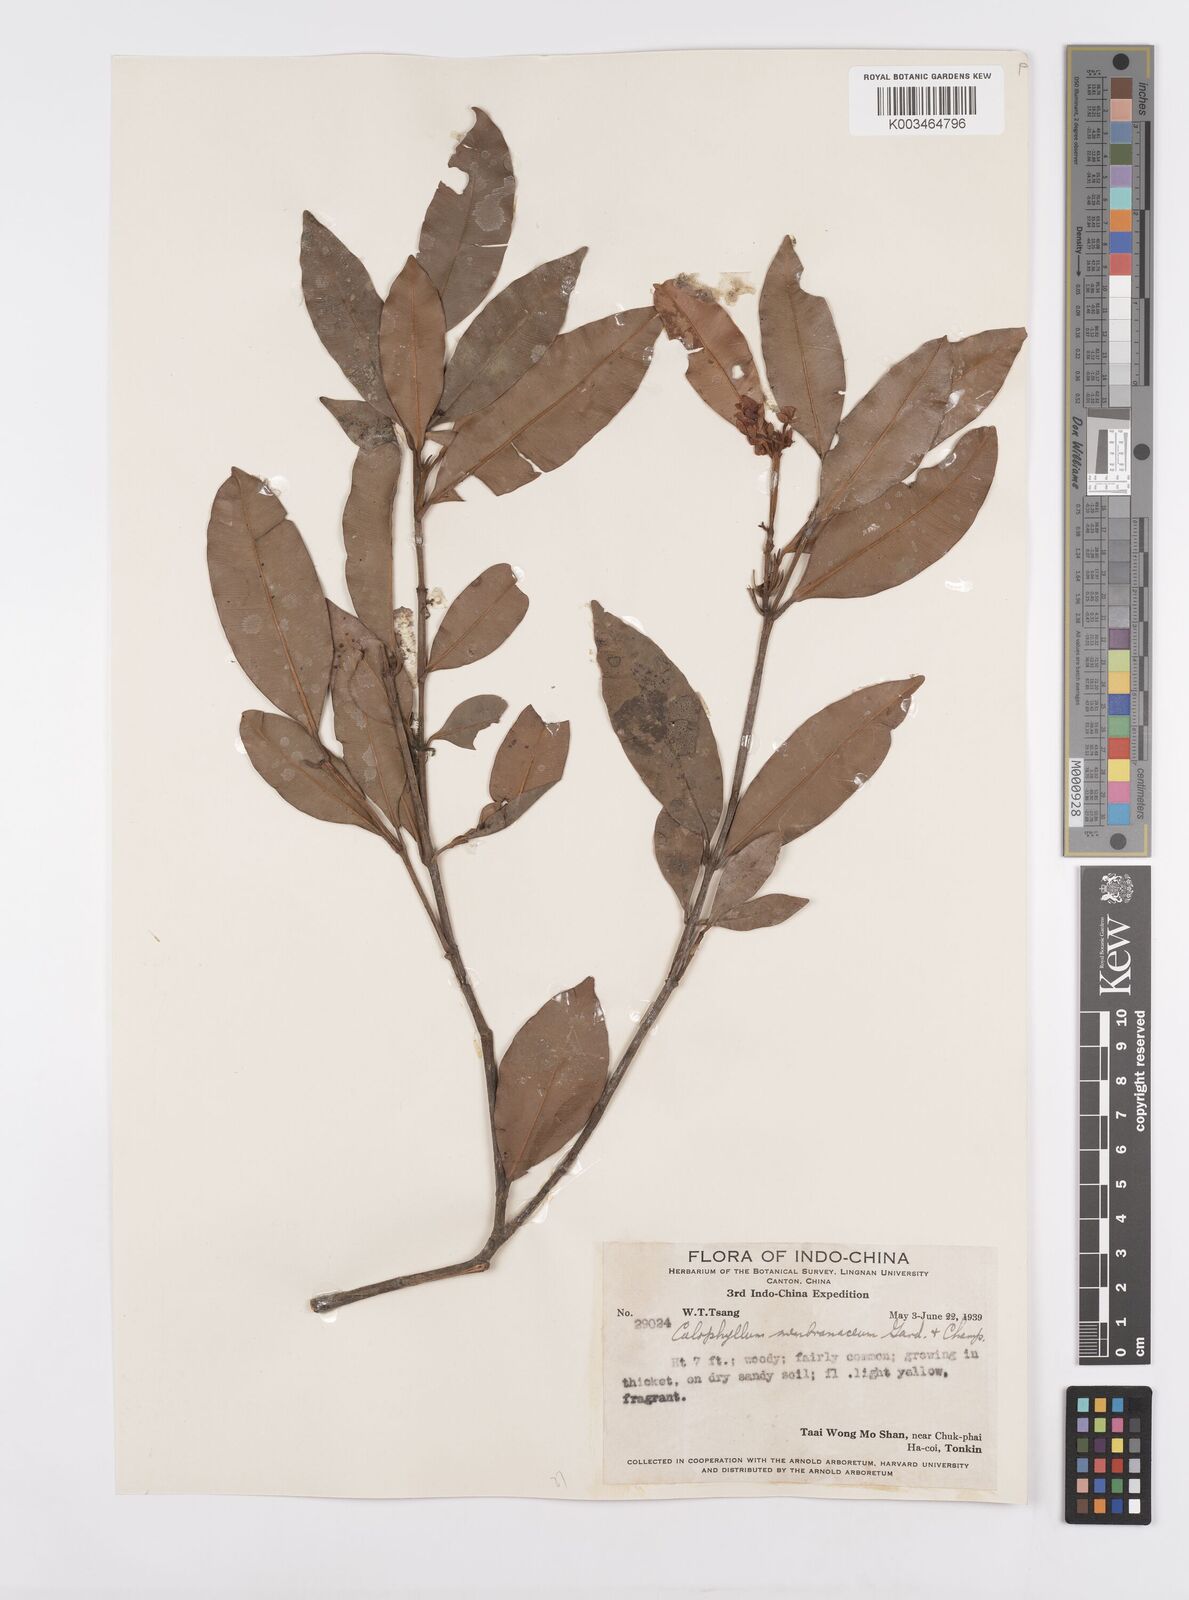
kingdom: Plantae
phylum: Tracheophyta
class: Magnoliopsida
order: Malpighiales
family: Calophyllaceae
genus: Calophyllum
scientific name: Calophyllum membranaceum
